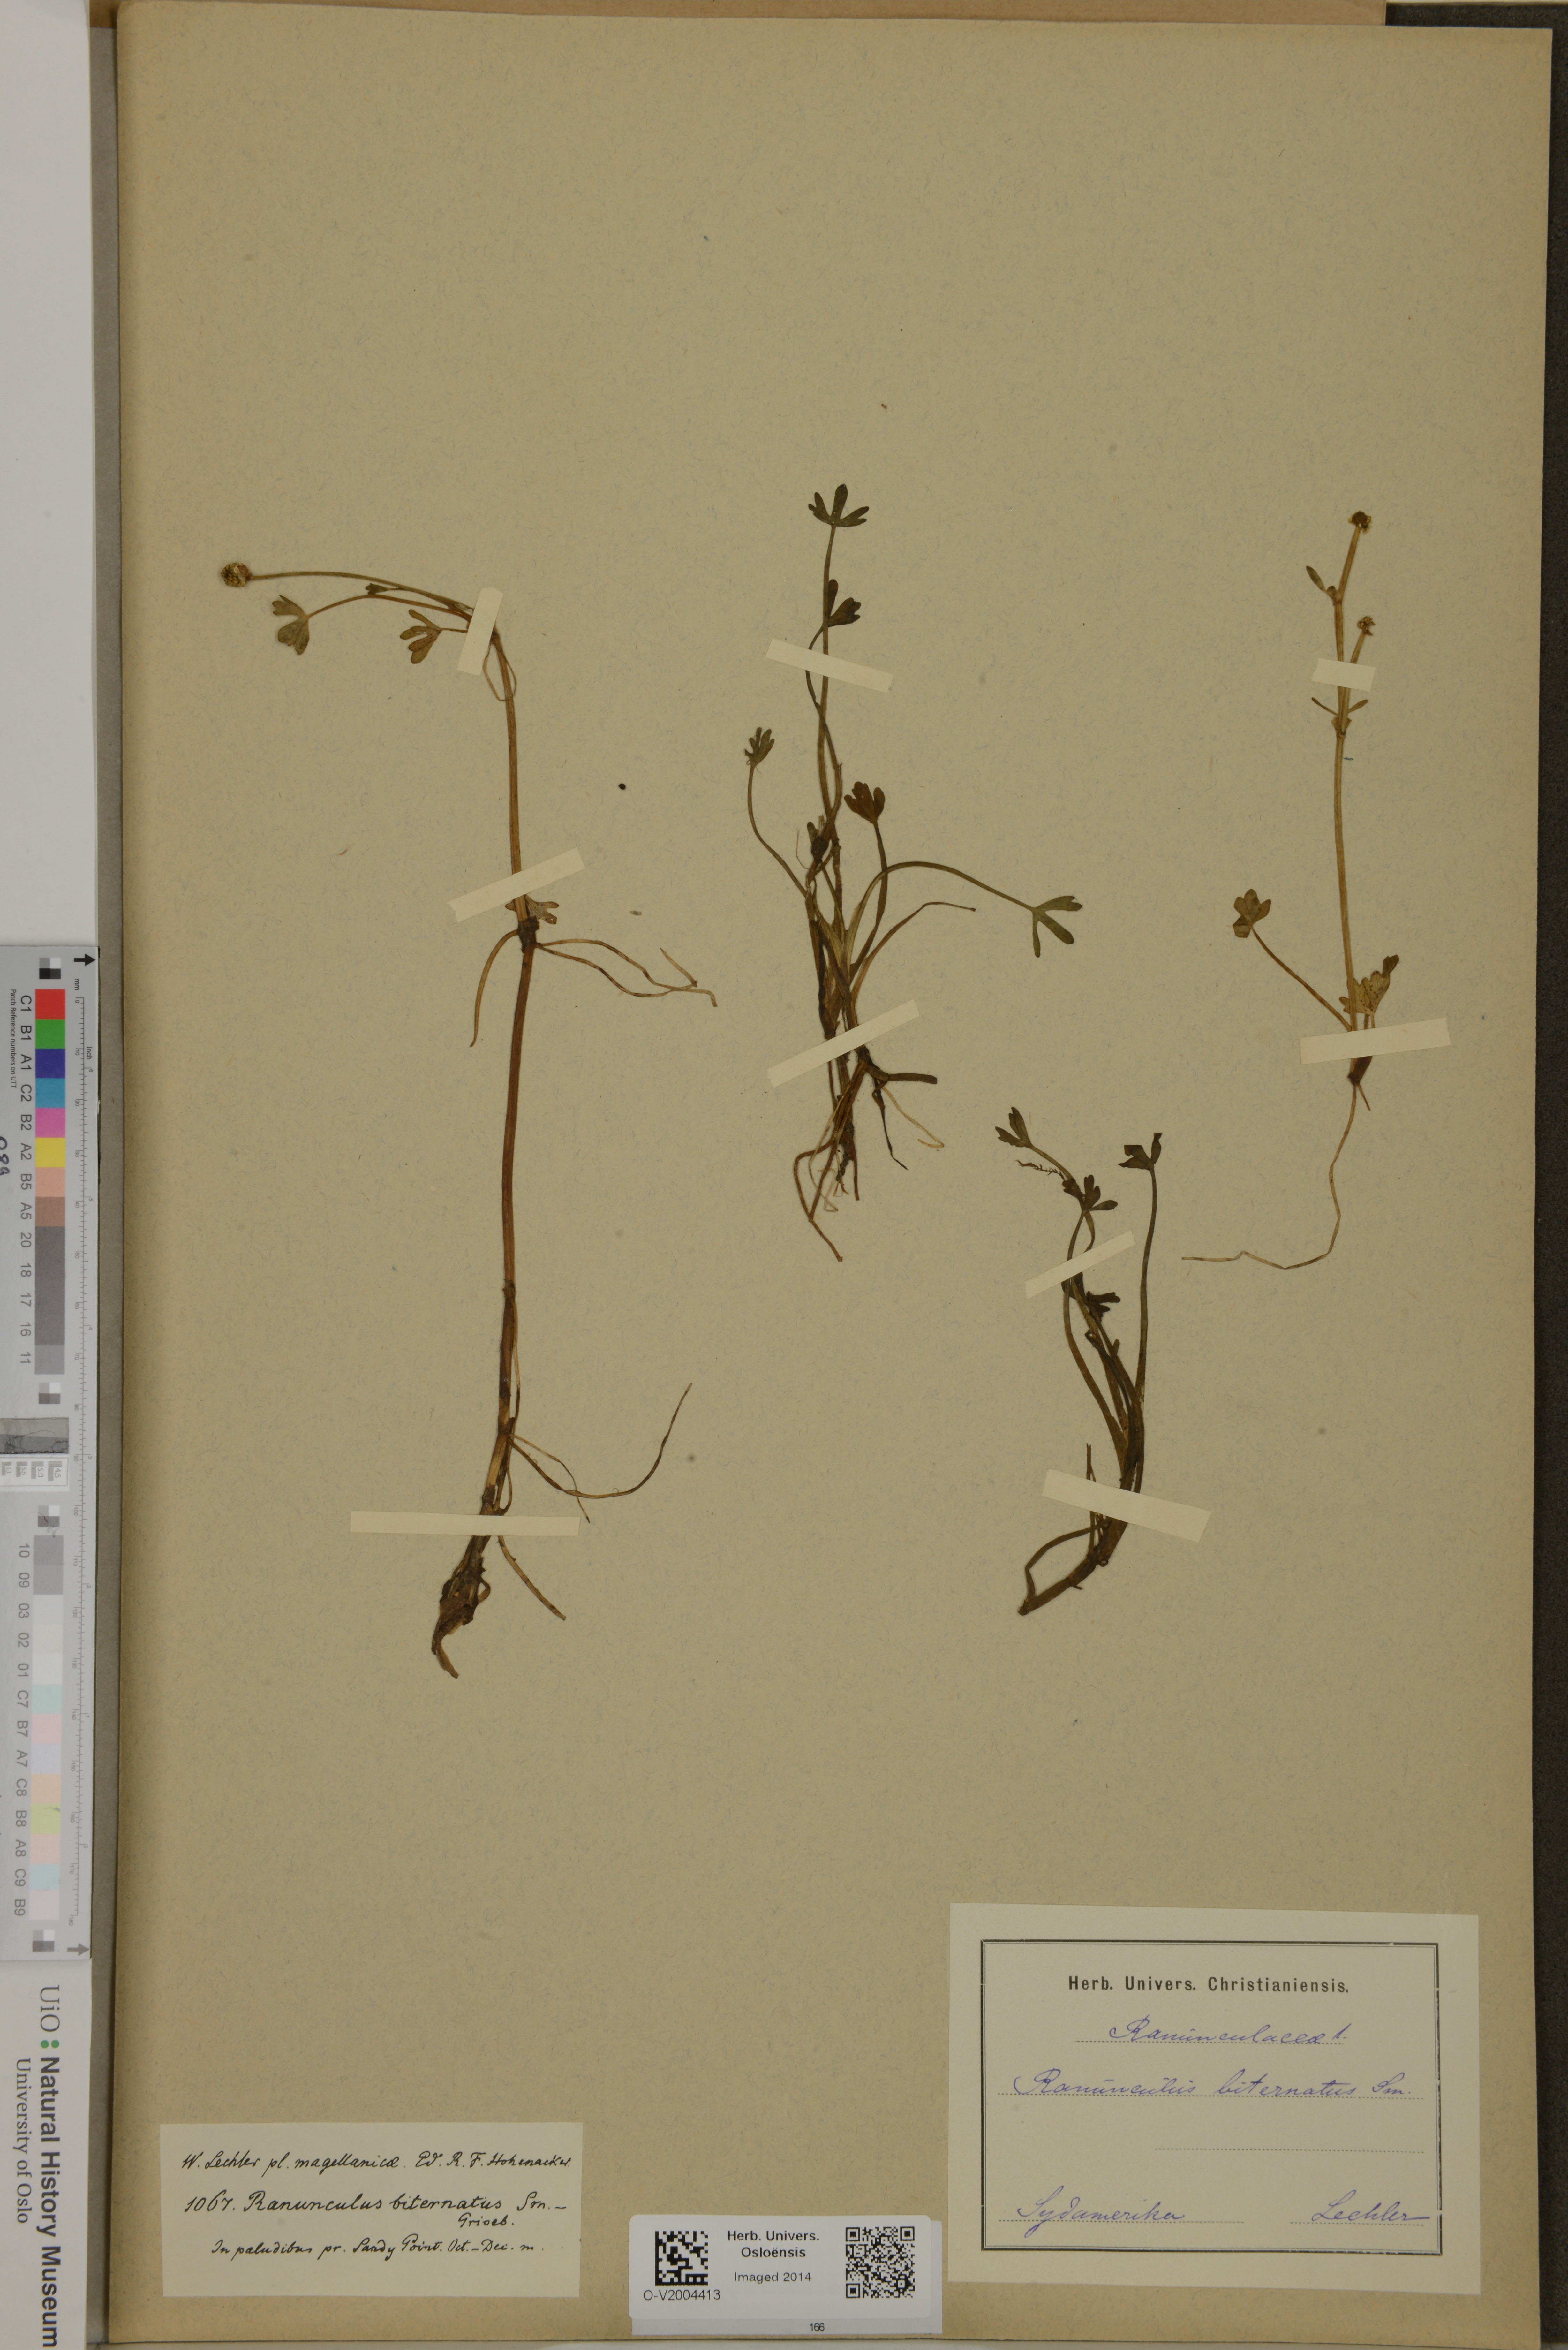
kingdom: Plantae
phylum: Tracheophyta
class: Magnoliopsida
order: Ranunculales
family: Ranunculaceae
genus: Ranunculus
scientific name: Ranunculus biternatus
